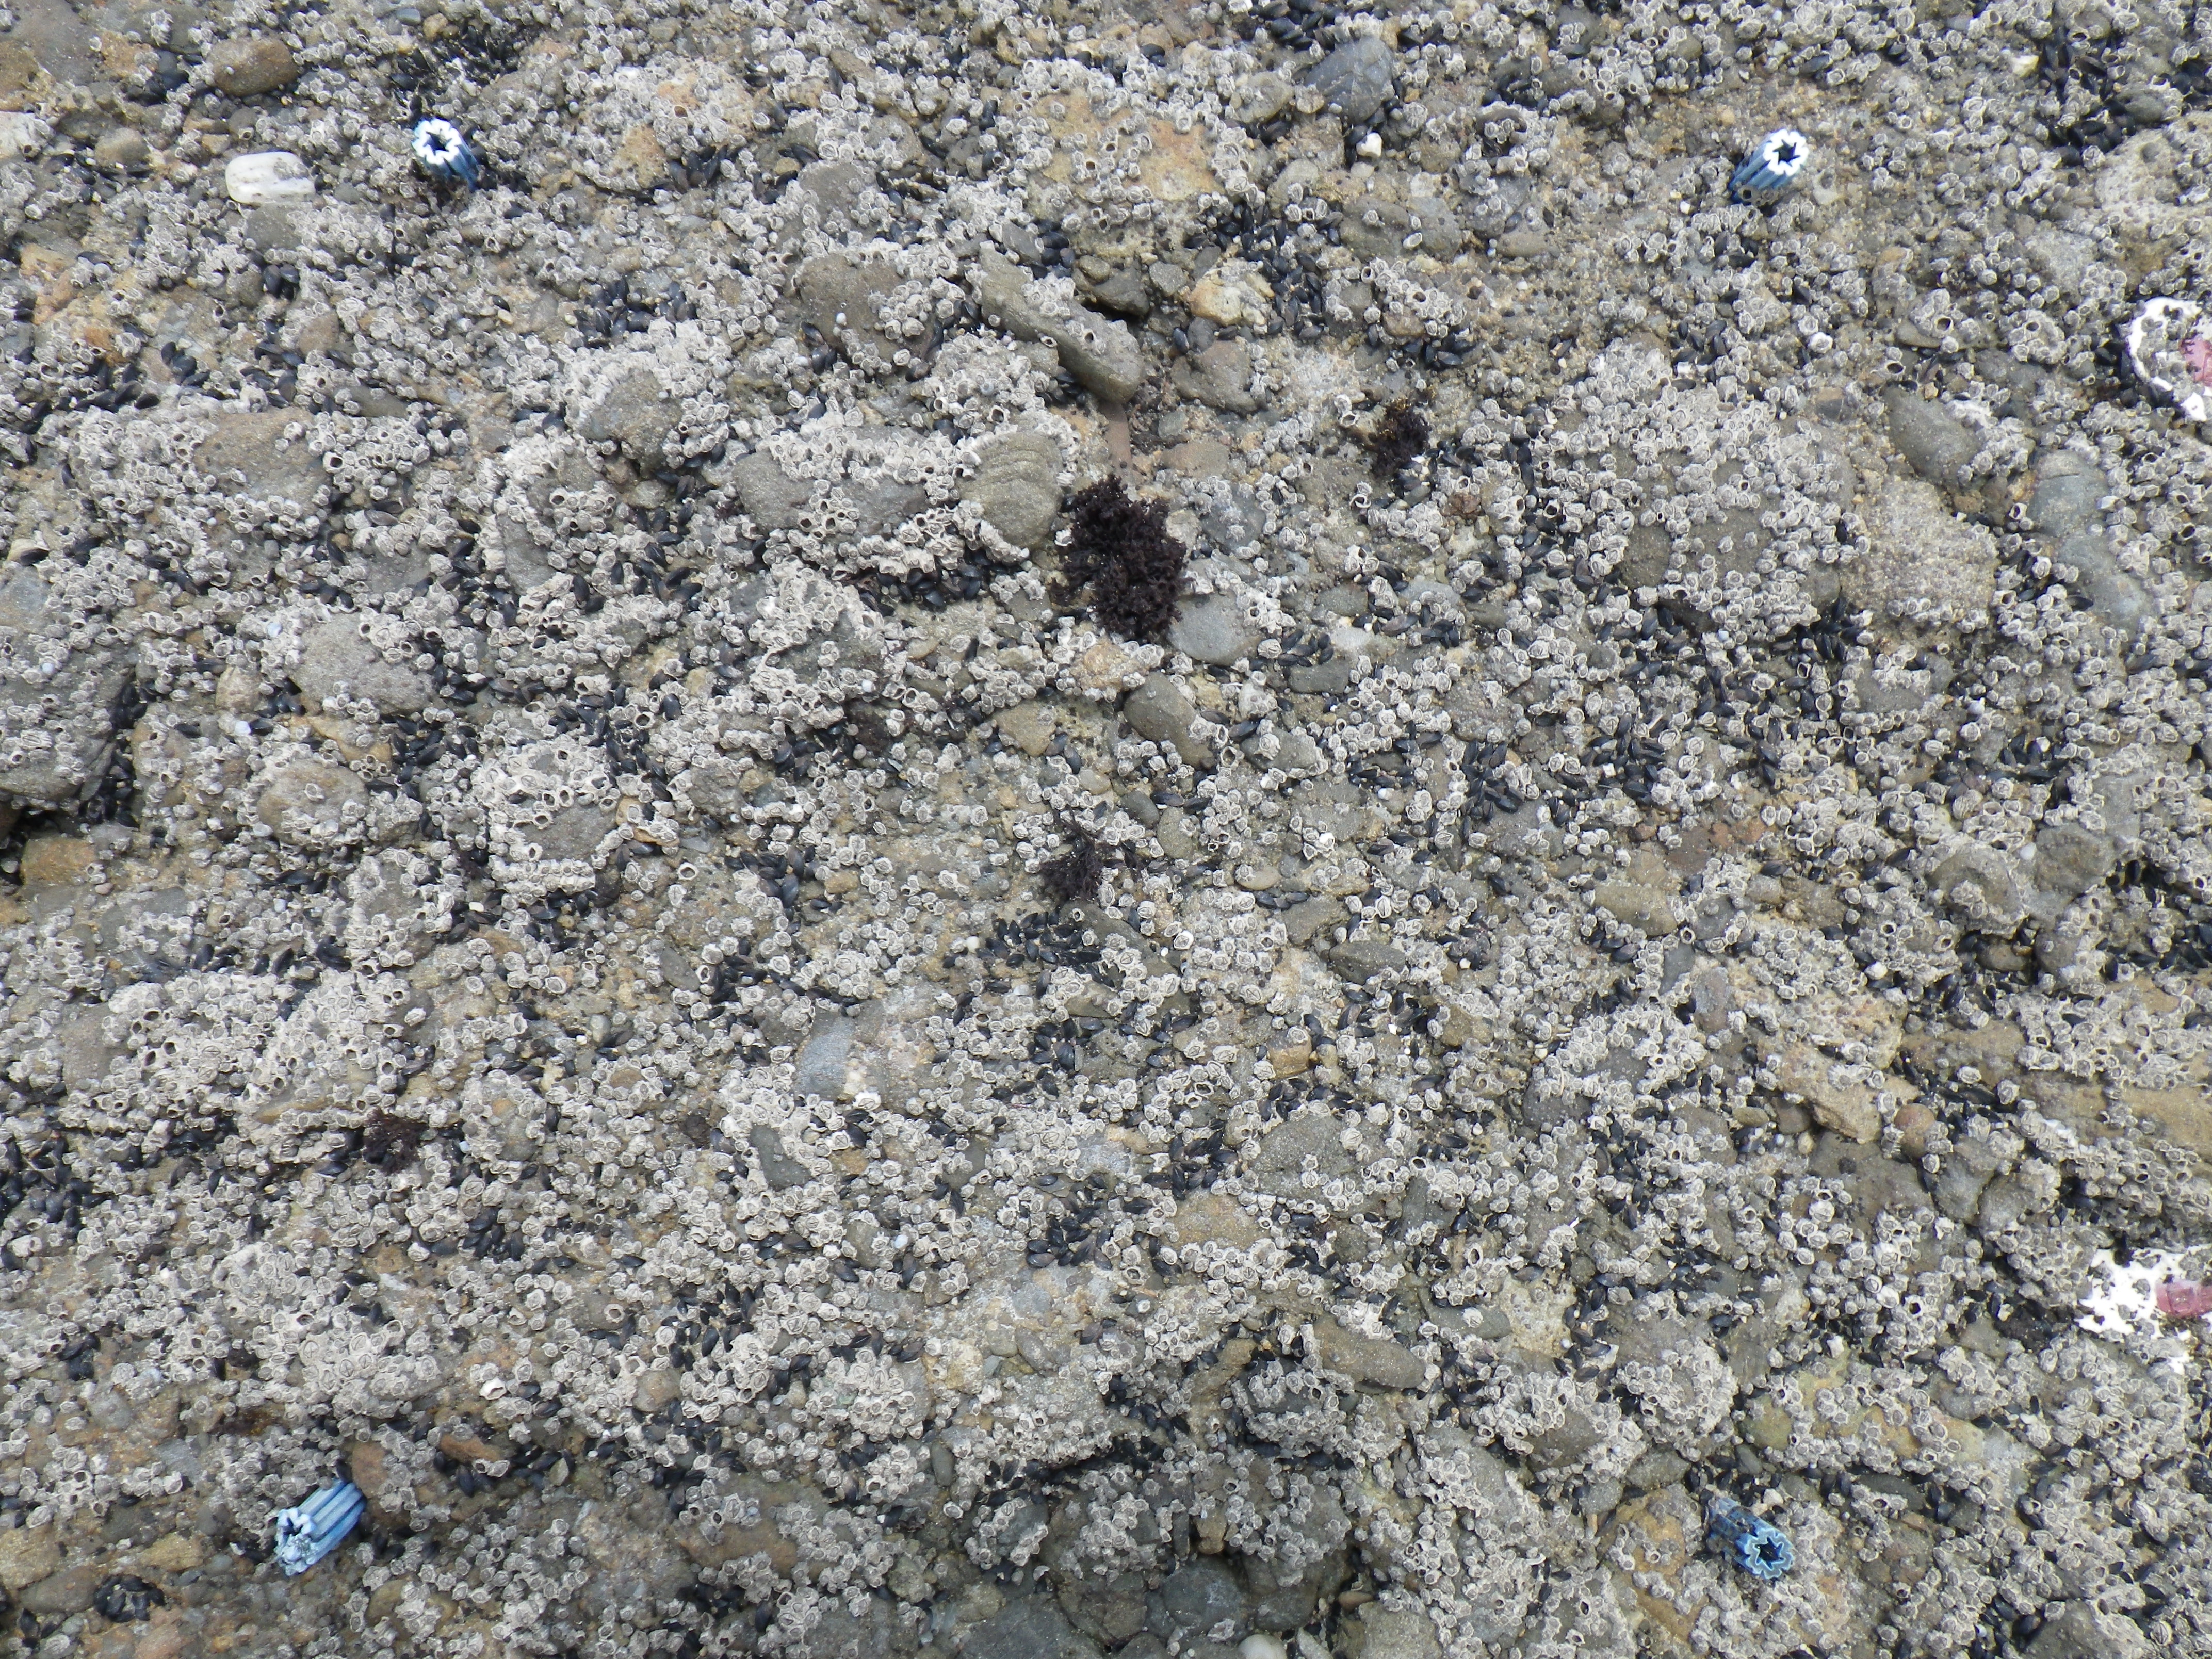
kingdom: Animalia
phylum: Arthropoda
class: Maxillopoda
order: Sessilia
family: Chthamalidae
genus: Chthamalus
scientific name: Chthamalus challengeri
